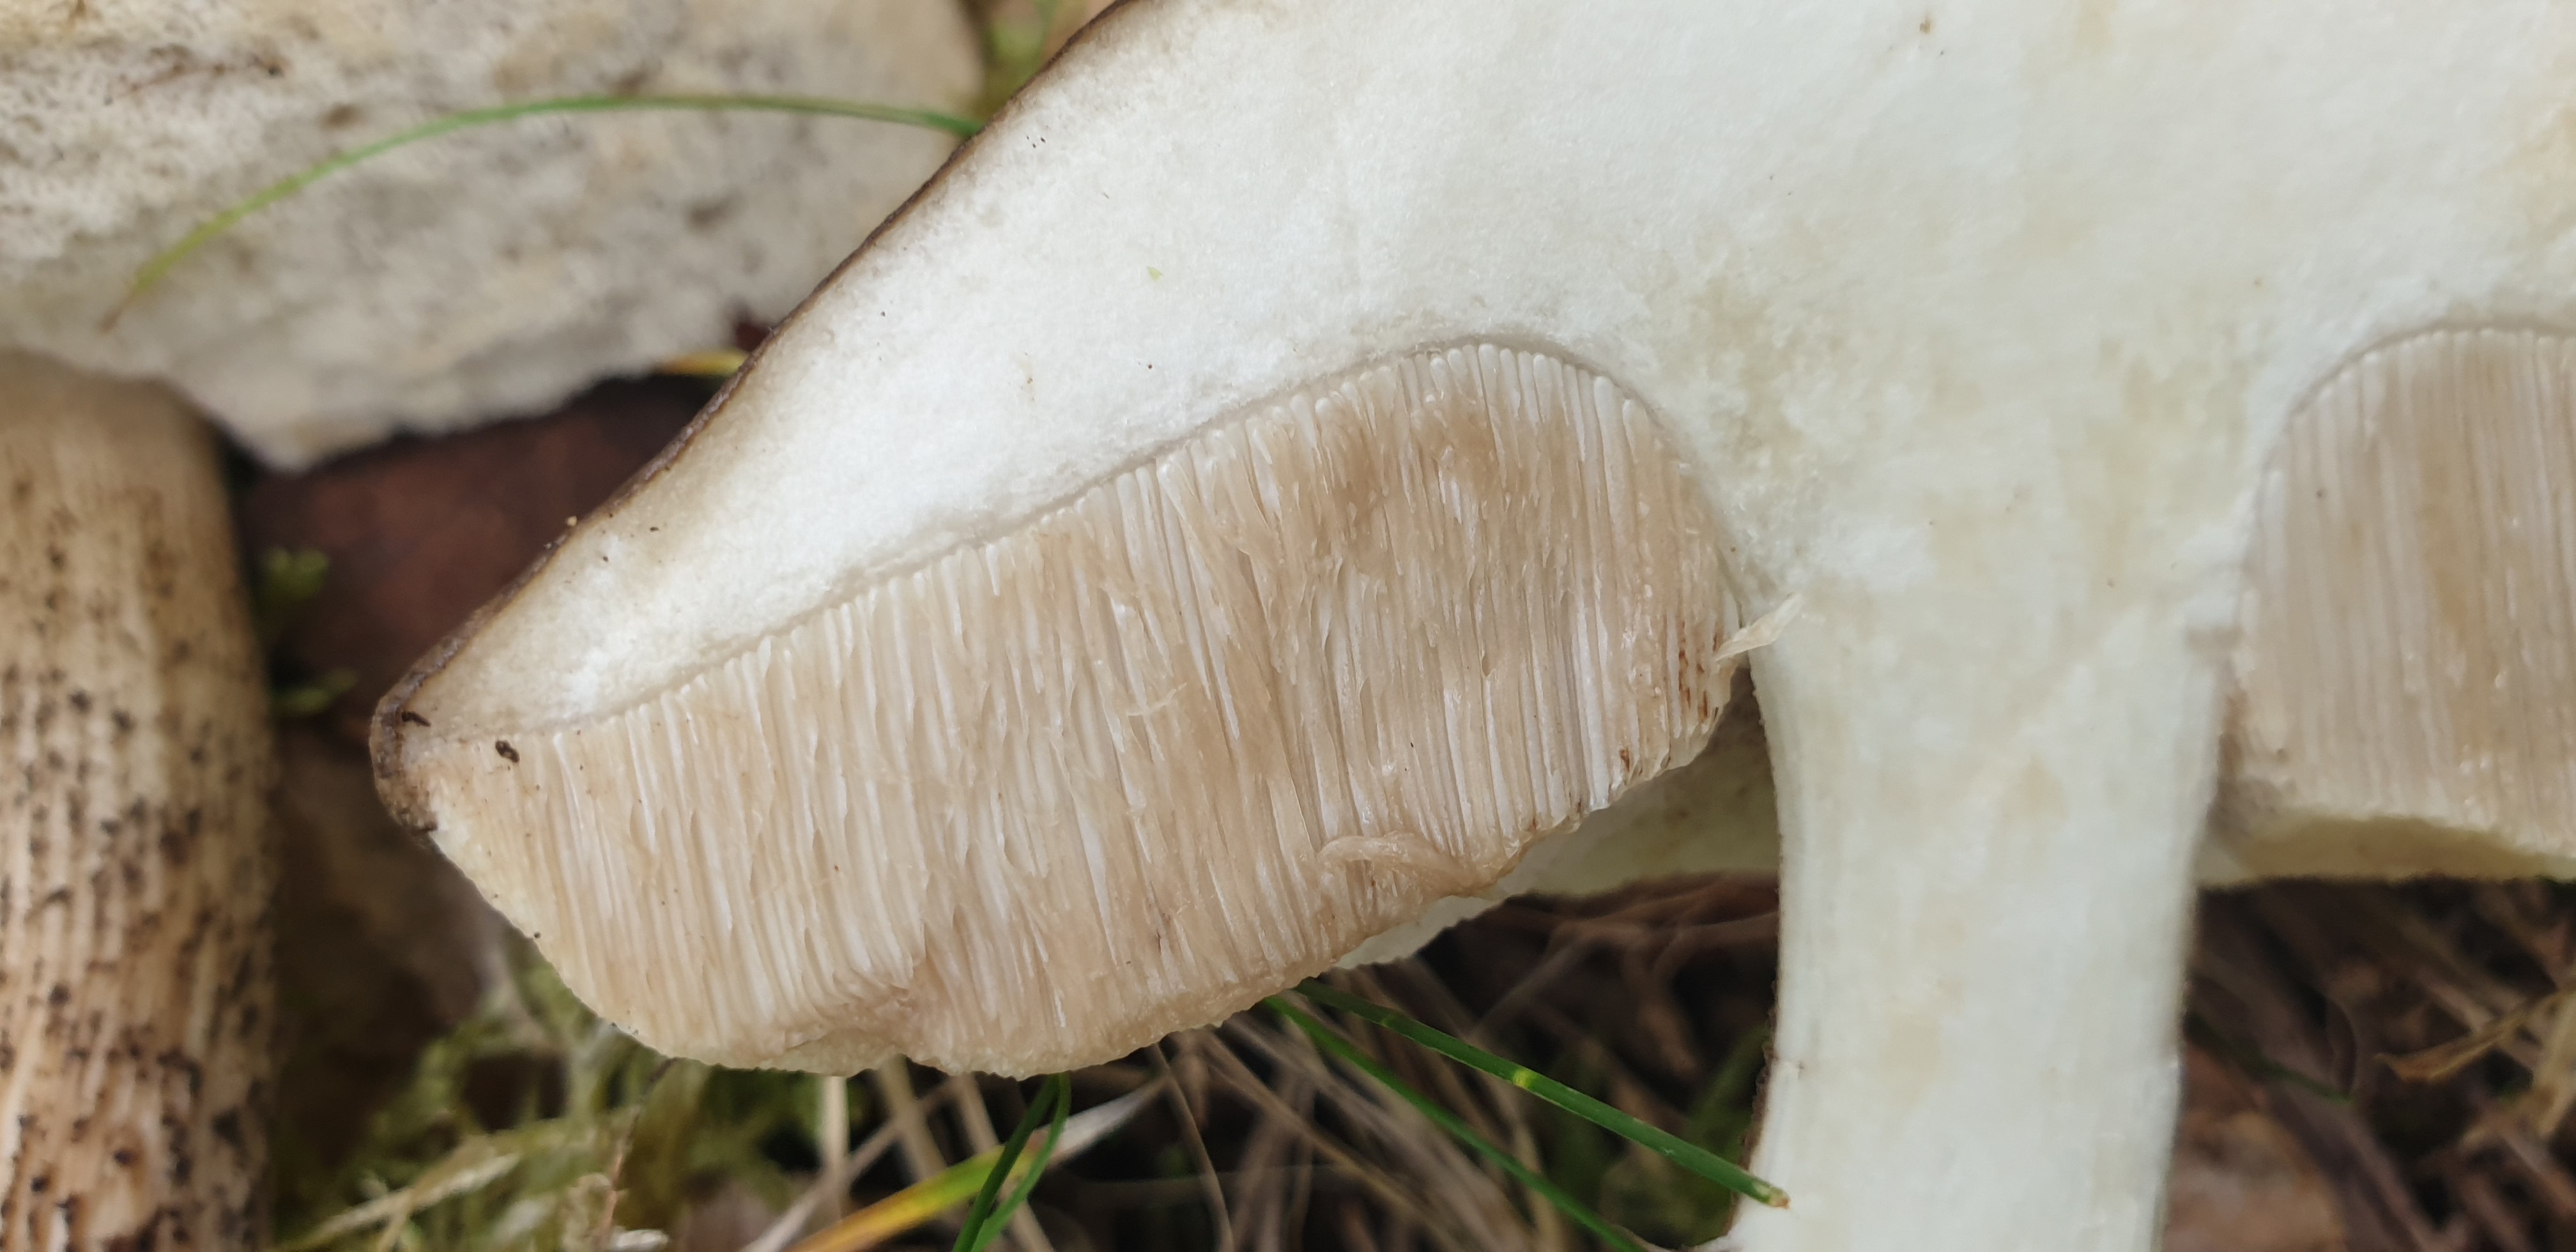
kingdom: Fungi
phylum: Basidiomycota
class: Agaricomycetes
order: Boletales
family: Boletaceae
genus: Leccinum
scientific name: Leccinum cyaneobasileucum
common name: almindelig skælrørhat
